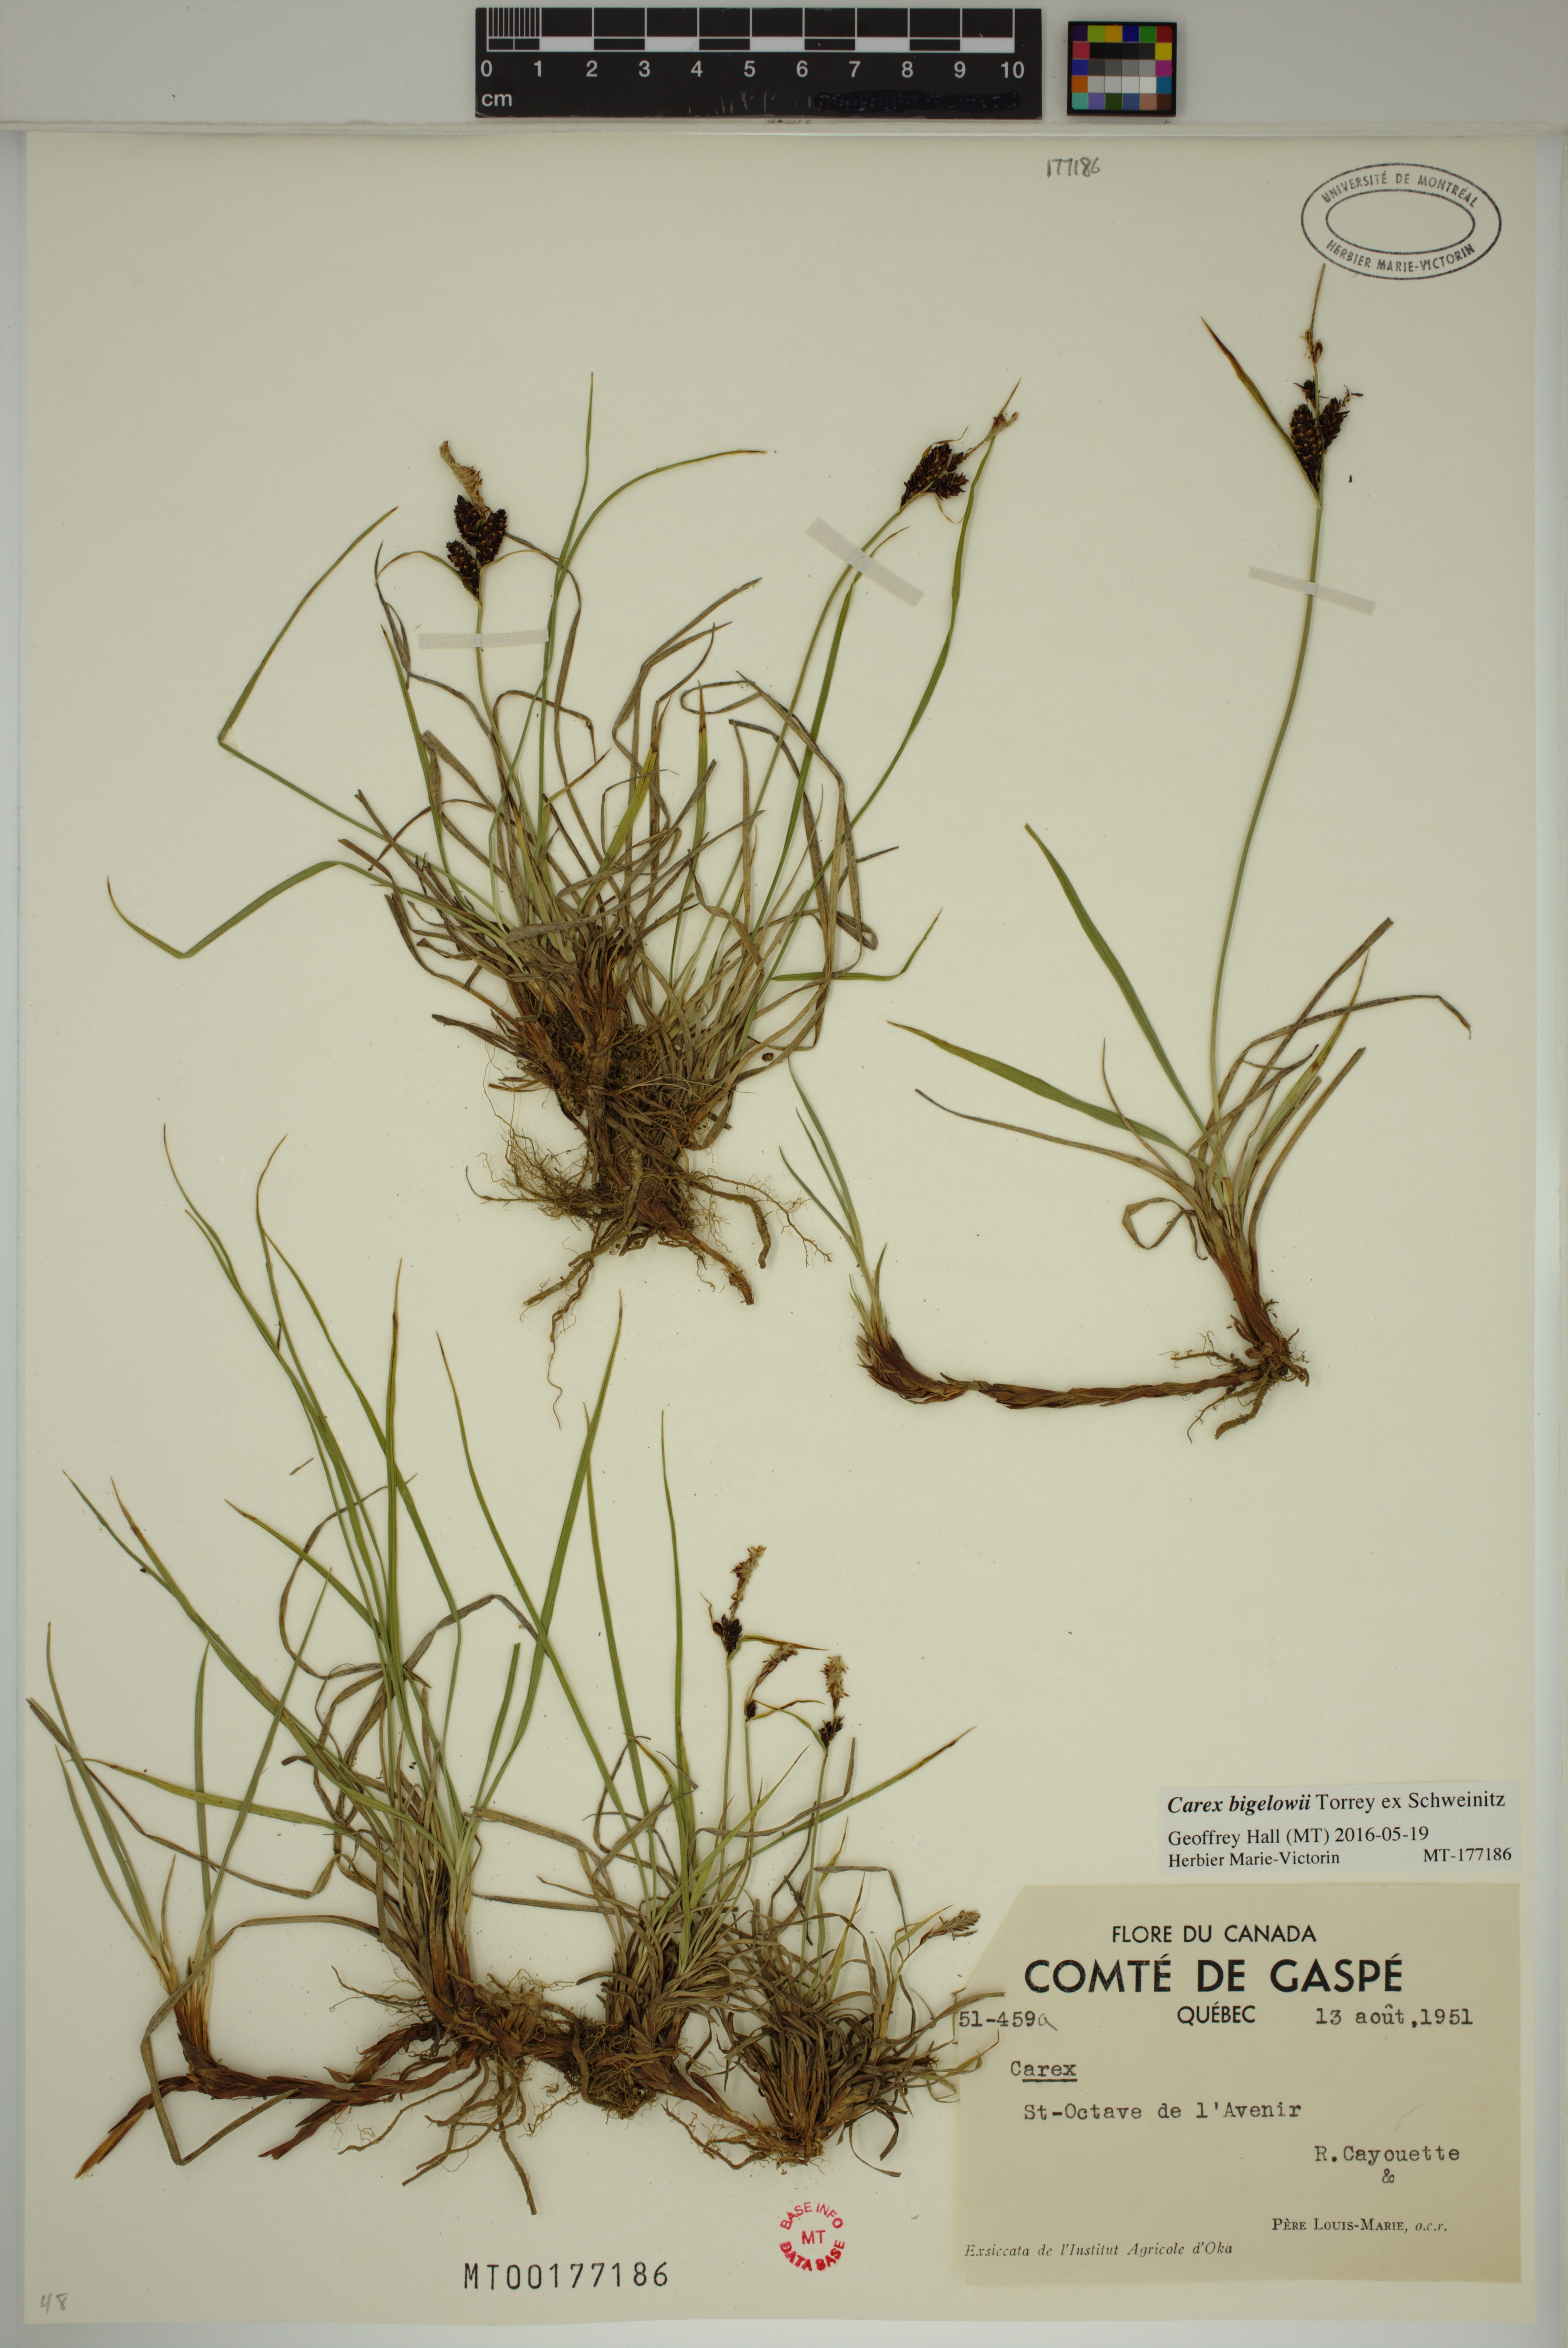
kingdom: Plantae
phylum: Tracheophyta
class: Liliopsida
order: Poales
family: Cyperaceae
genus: Carex
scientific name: Carex bigelowii
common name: Stiff sedge
